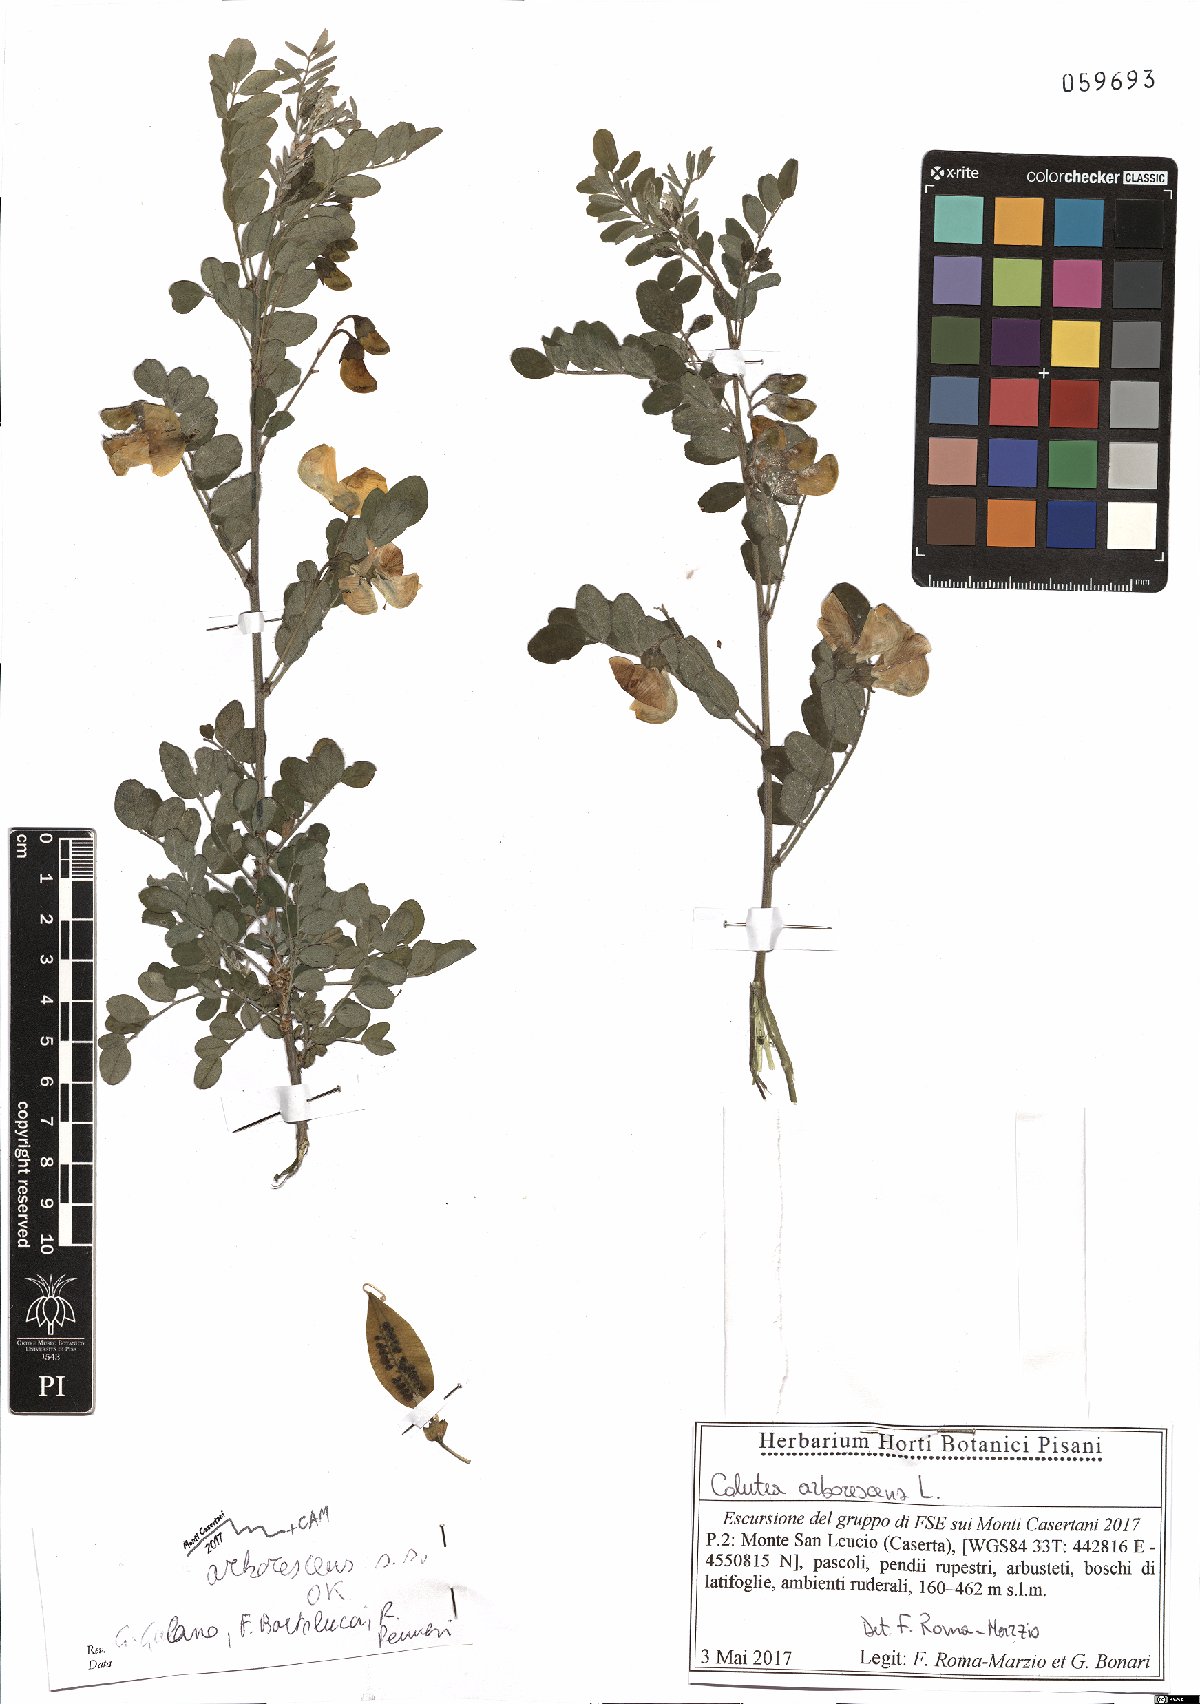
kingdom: Plantae
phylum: Tracheophyta
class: Magnoliopsida
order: Fabales
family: Fabaceae
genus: Colutea
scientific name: Colutea arborescens
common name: Bladder-senna
